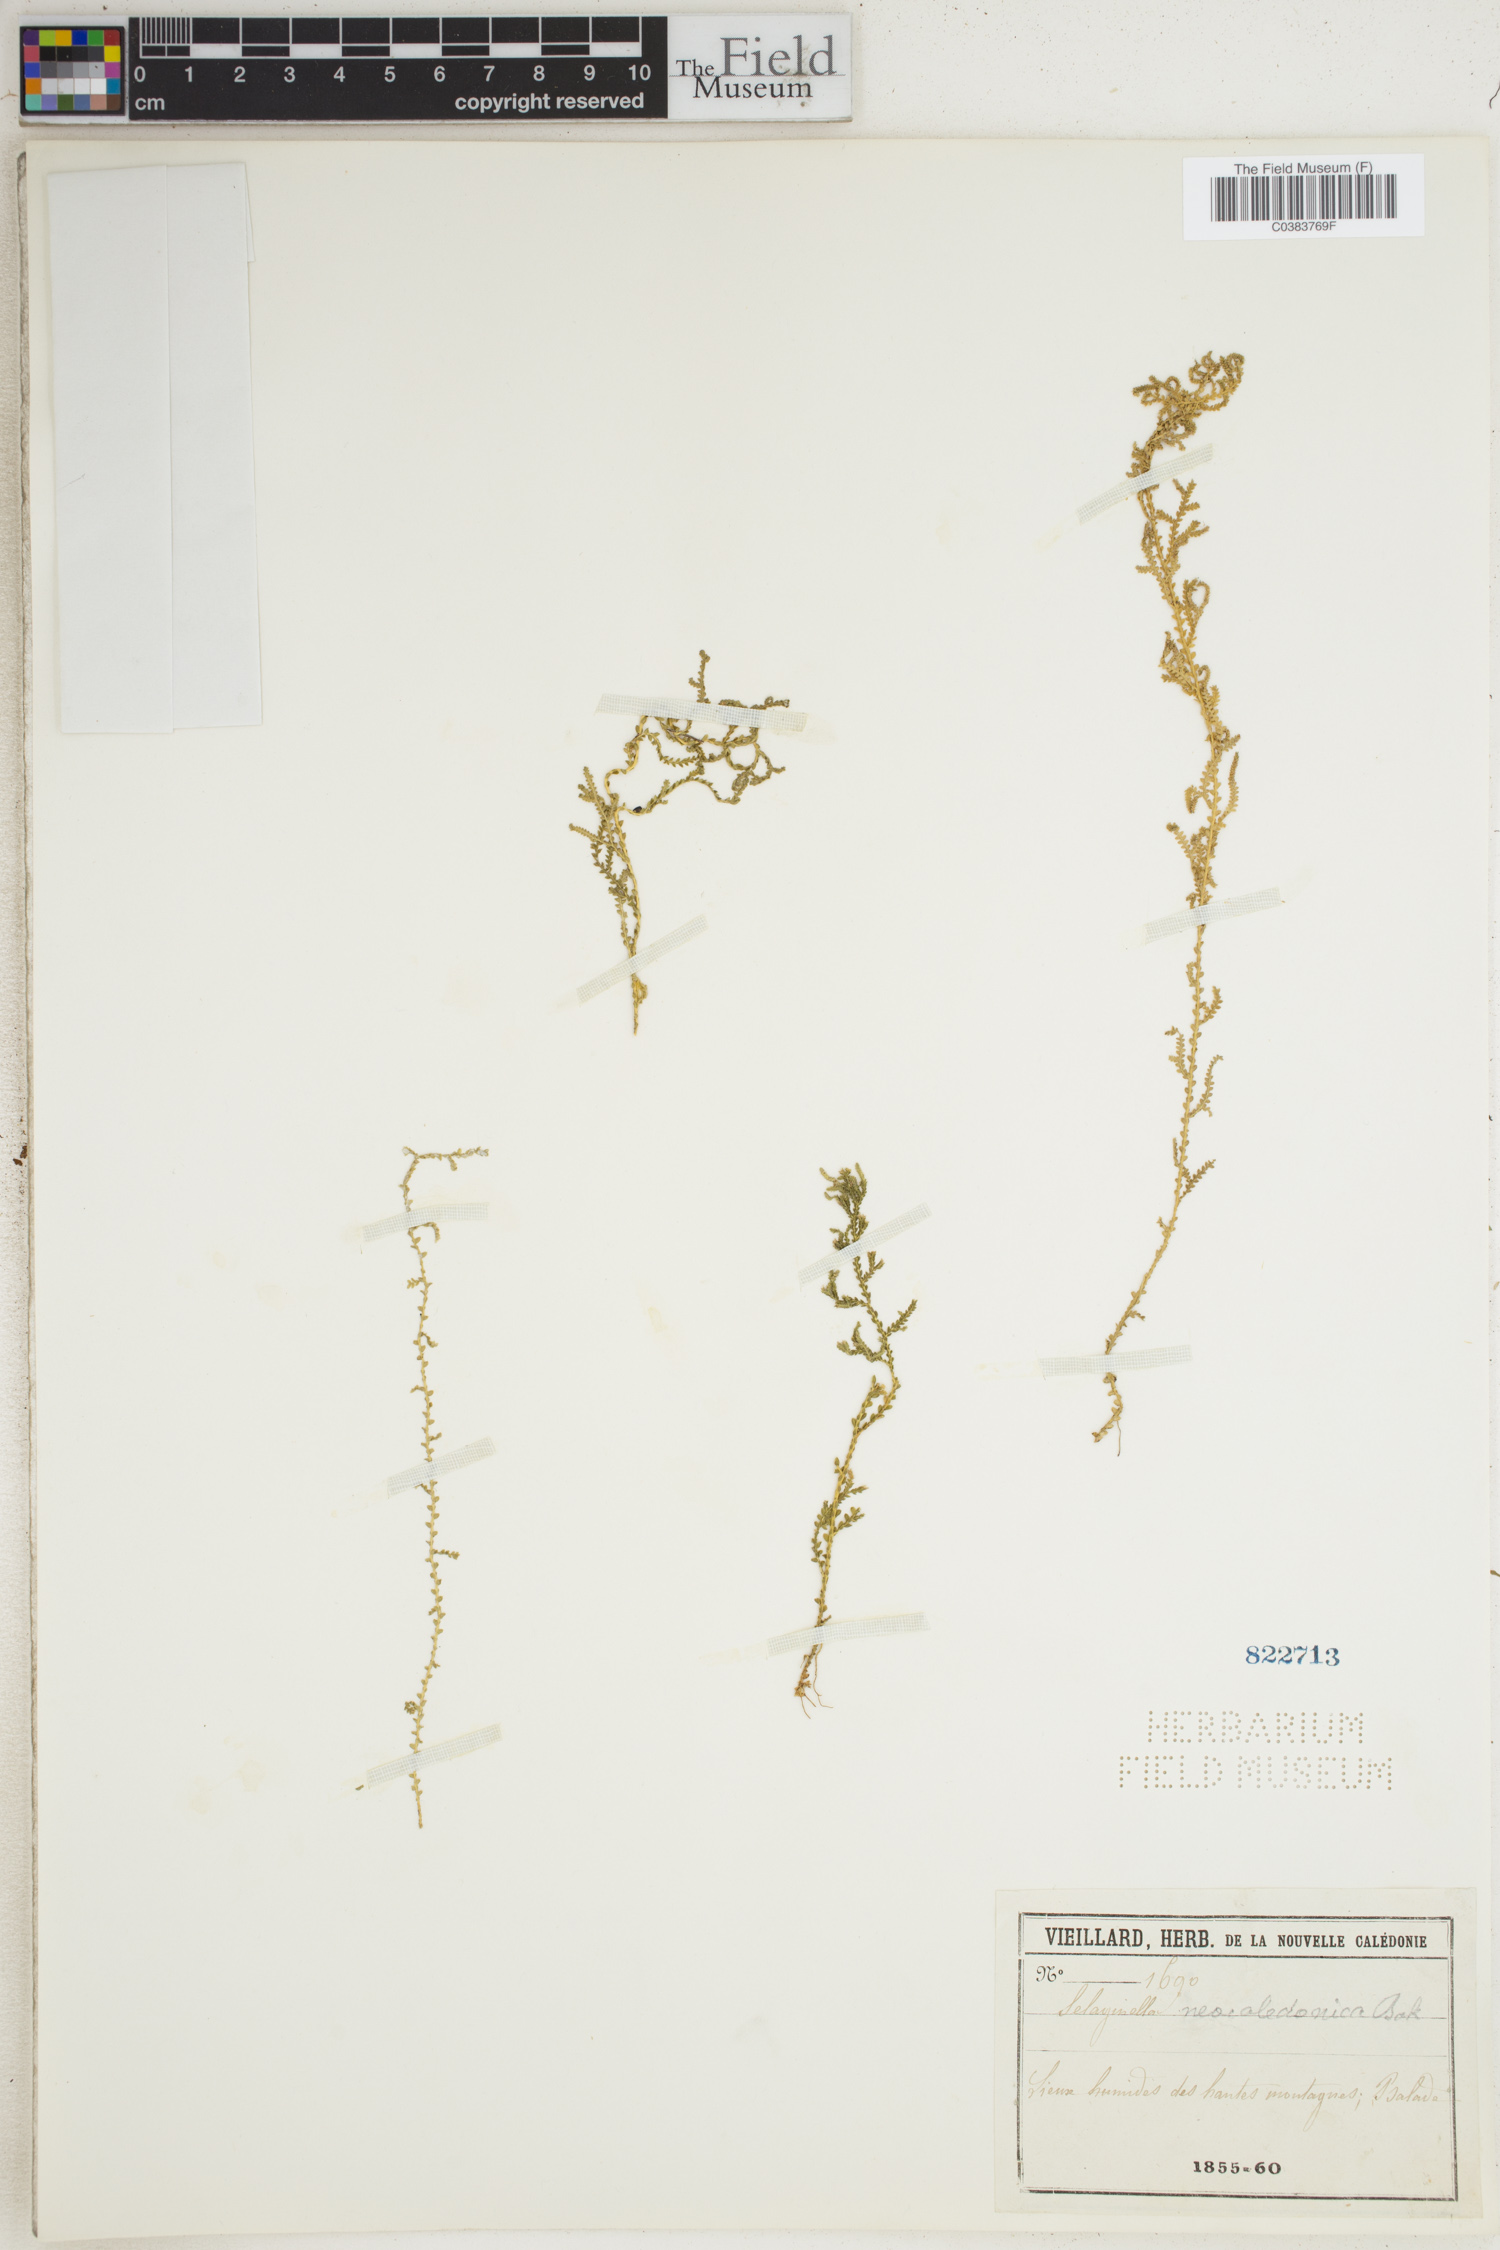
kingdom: Plantae
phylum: Tracheophyta
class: Lycopodiopsida
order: Selaginellales
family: Selaginellaceae
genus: Selaginella
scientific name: Selaginella neocaledonica
